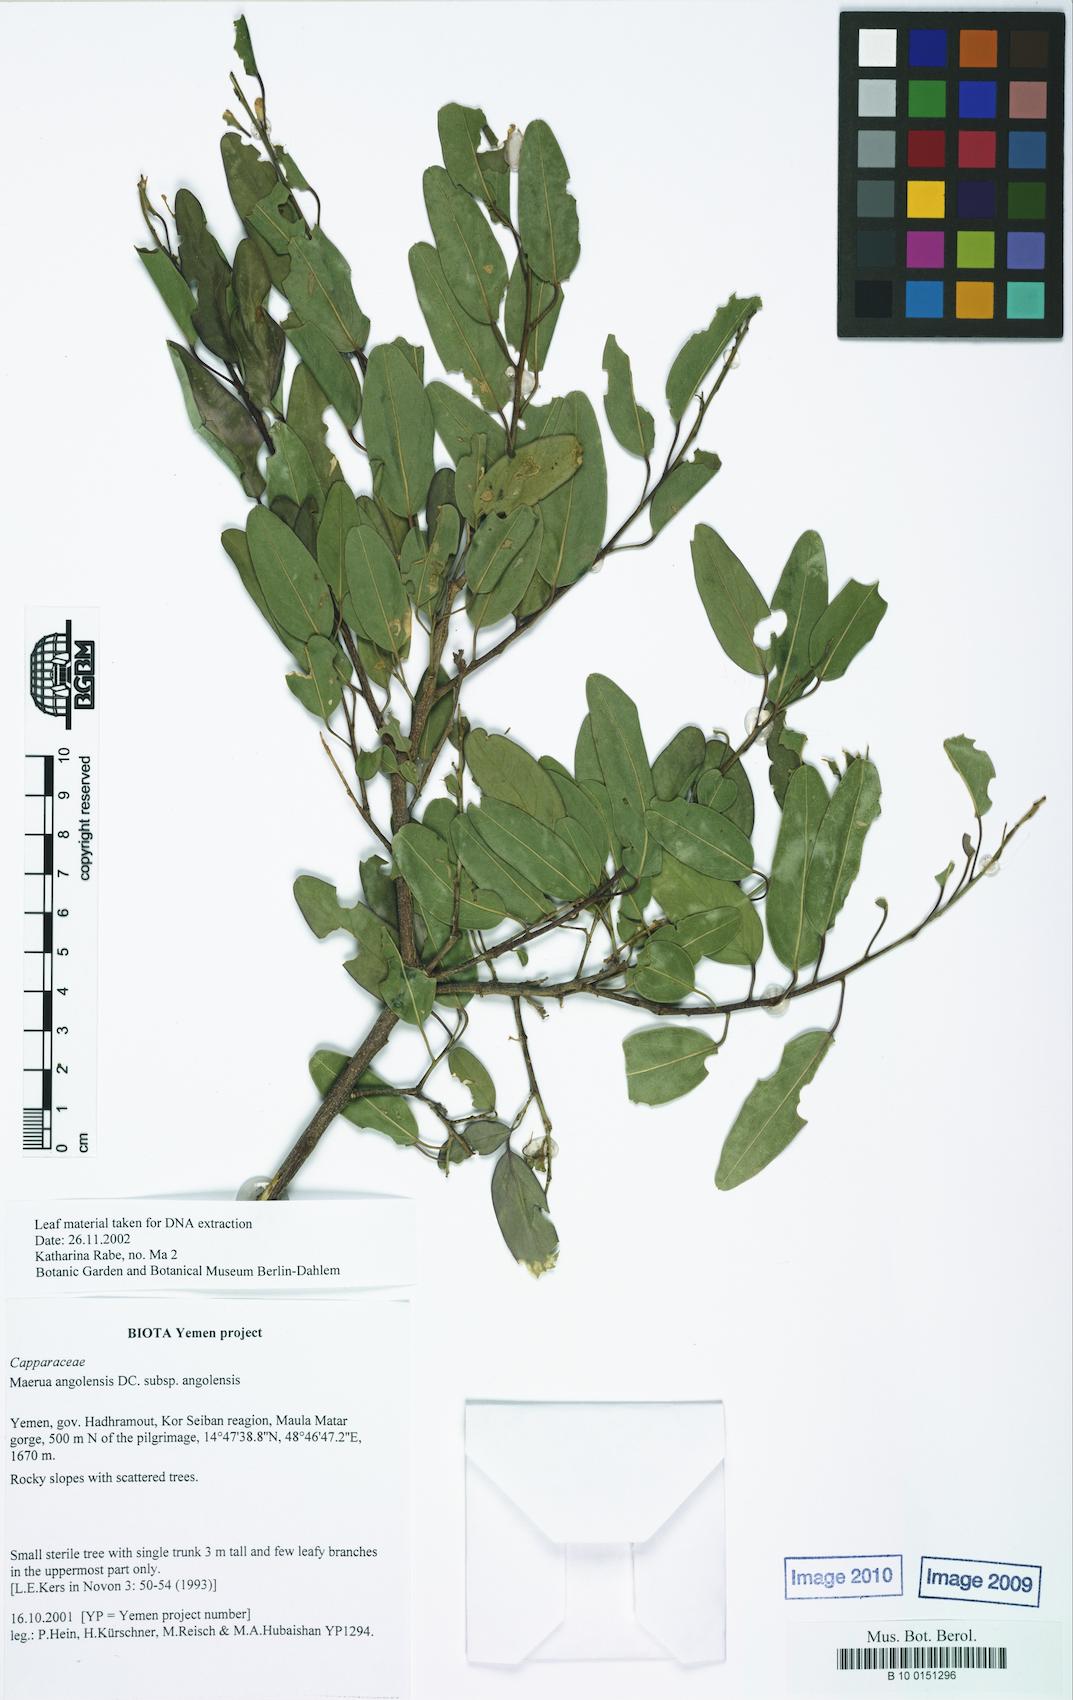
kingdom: Plantae
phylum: Tracheophyta
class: Magnoliopsida
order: Brassicales
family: Capparaceae
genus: Maerua
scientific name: Maerua angolensis
